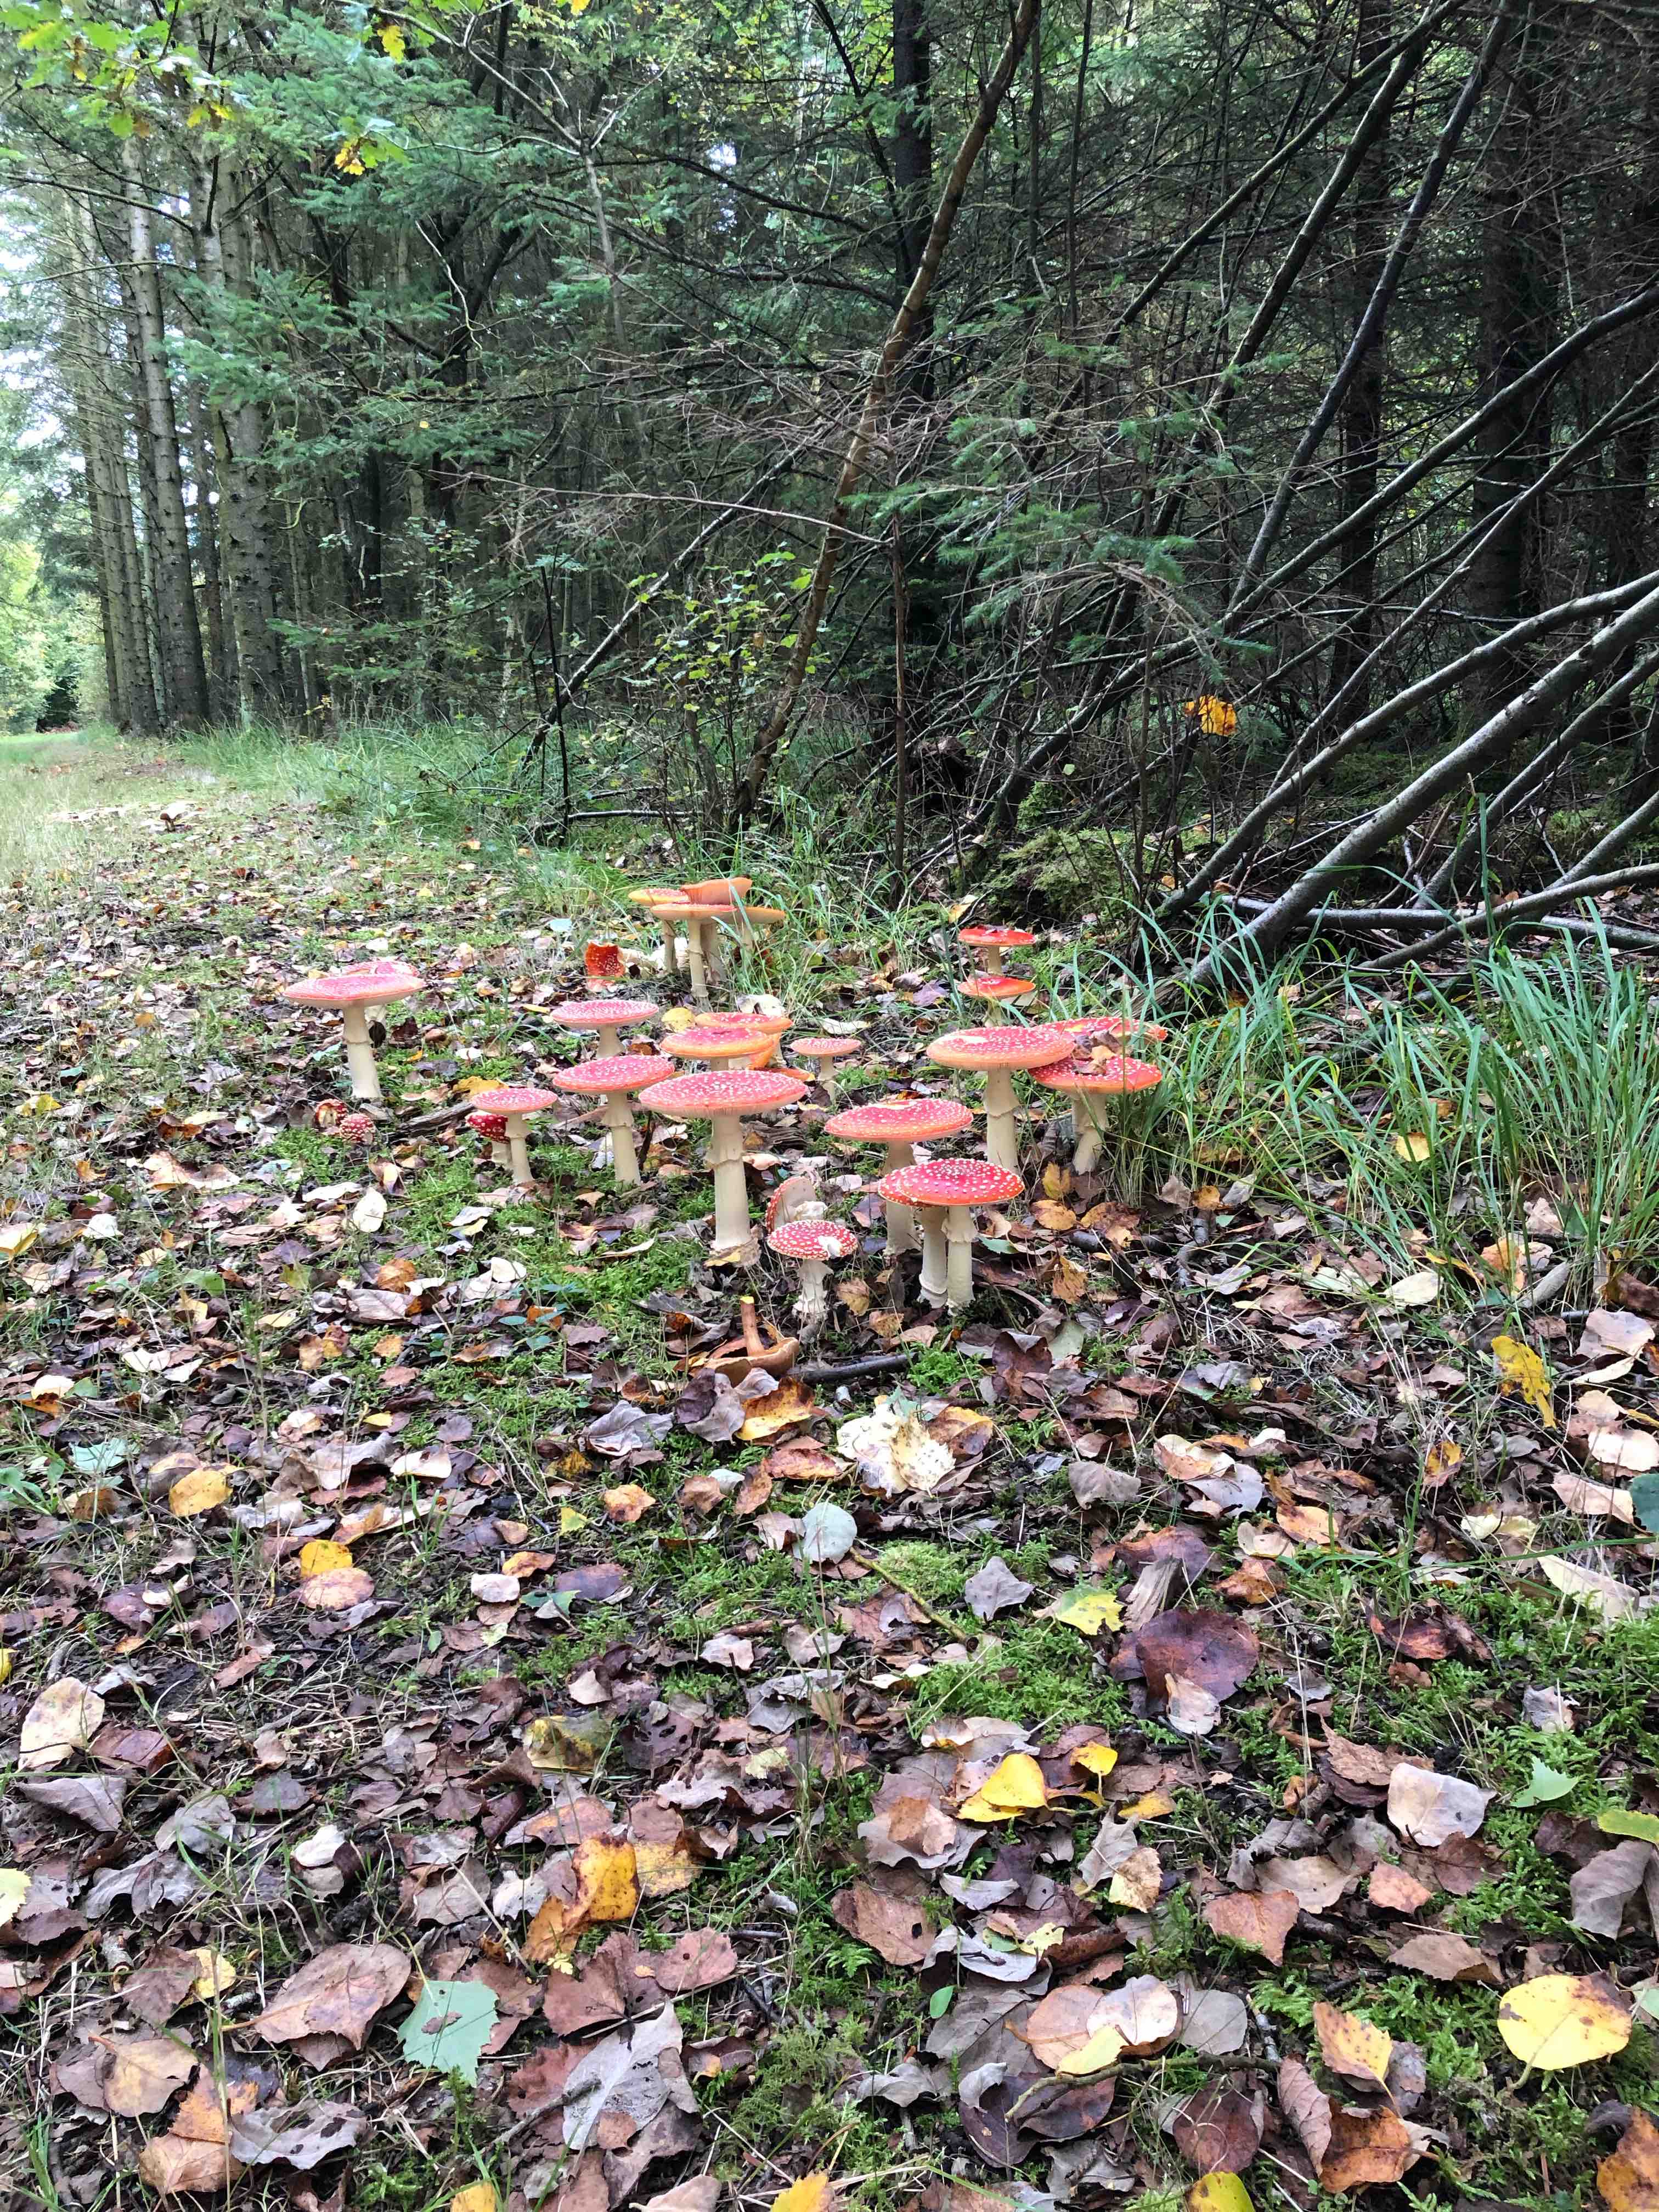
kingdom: Fungi
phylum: Basidiomycota
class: Agaricomycetes
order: Agaricales
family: Amanitaceae
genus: Amanita
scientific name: Amanita muscaria
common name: rød fluesvamp
